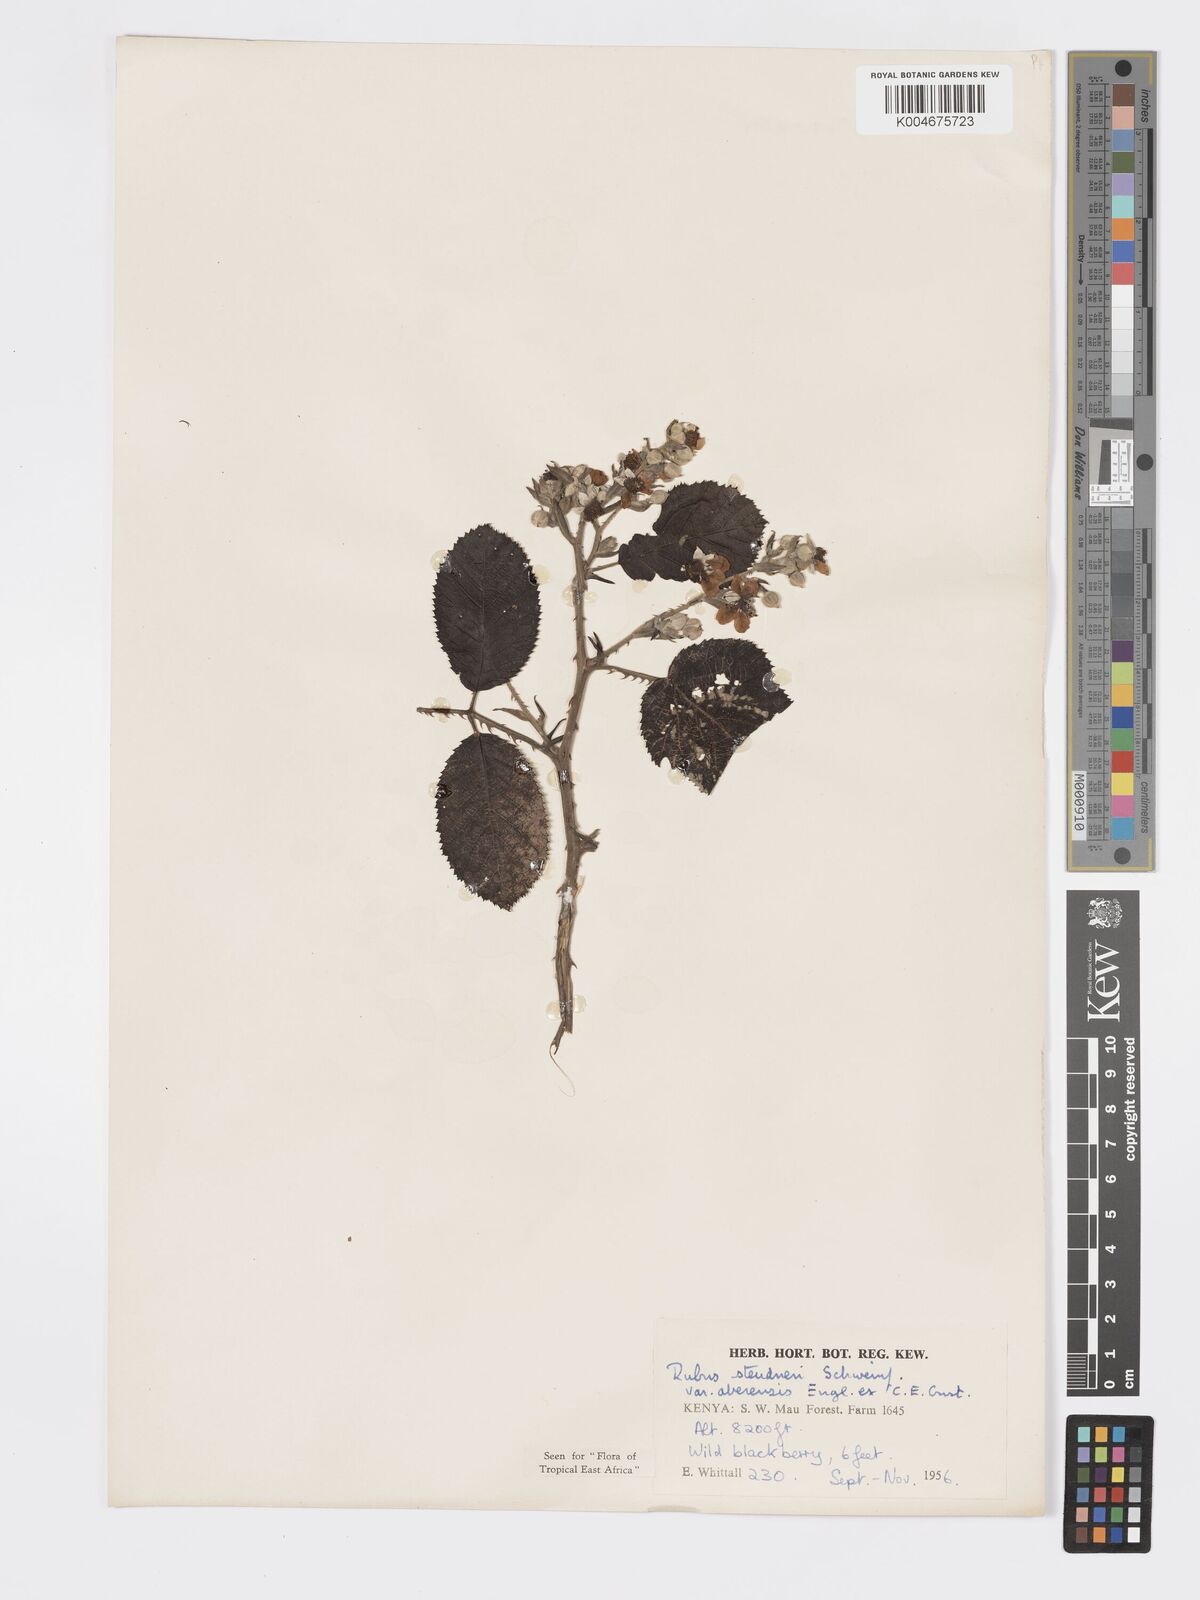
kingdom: Plantae
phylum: Tracheophyta
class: Magnoliopsida
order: Rosales
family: Rosaceae
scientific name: Rosaceae
